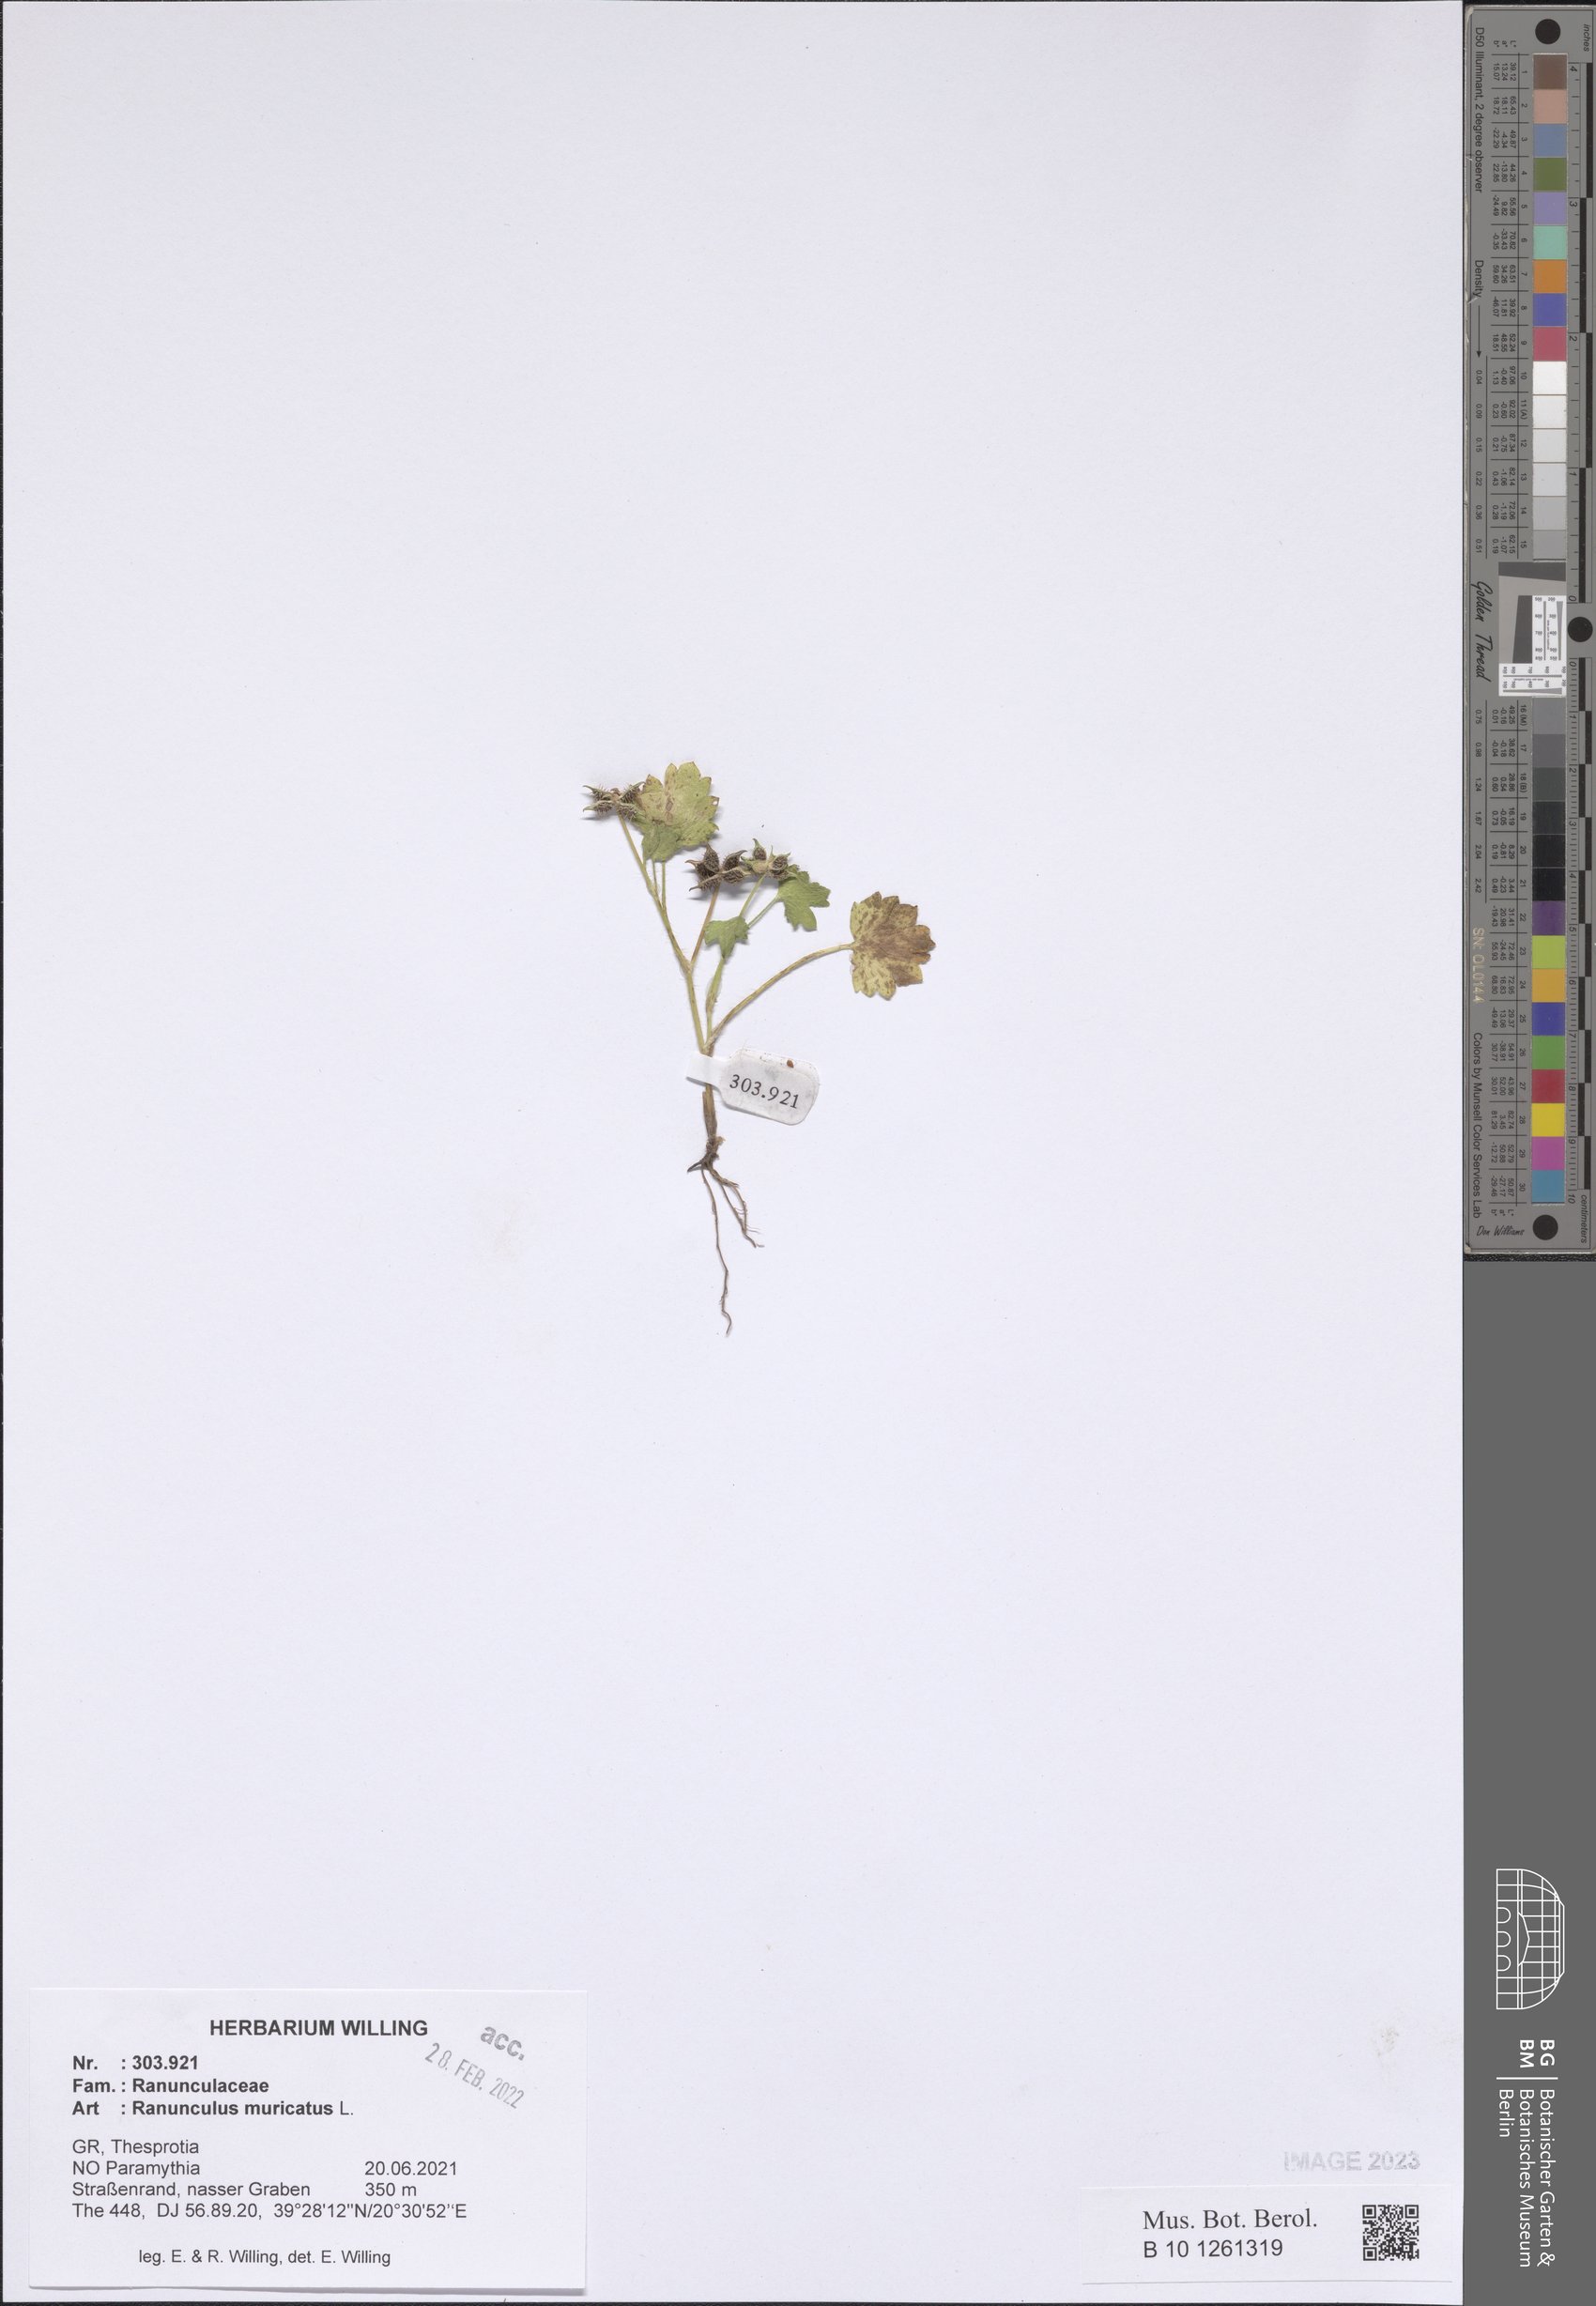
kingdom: Plantae
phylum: Tracheophyta
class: Magnoliopsida
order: Ranunculales
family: Ranunculaceae
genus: Ranunculus
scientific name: Ranunculus muricatus
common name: Rough-fruited buttercup
